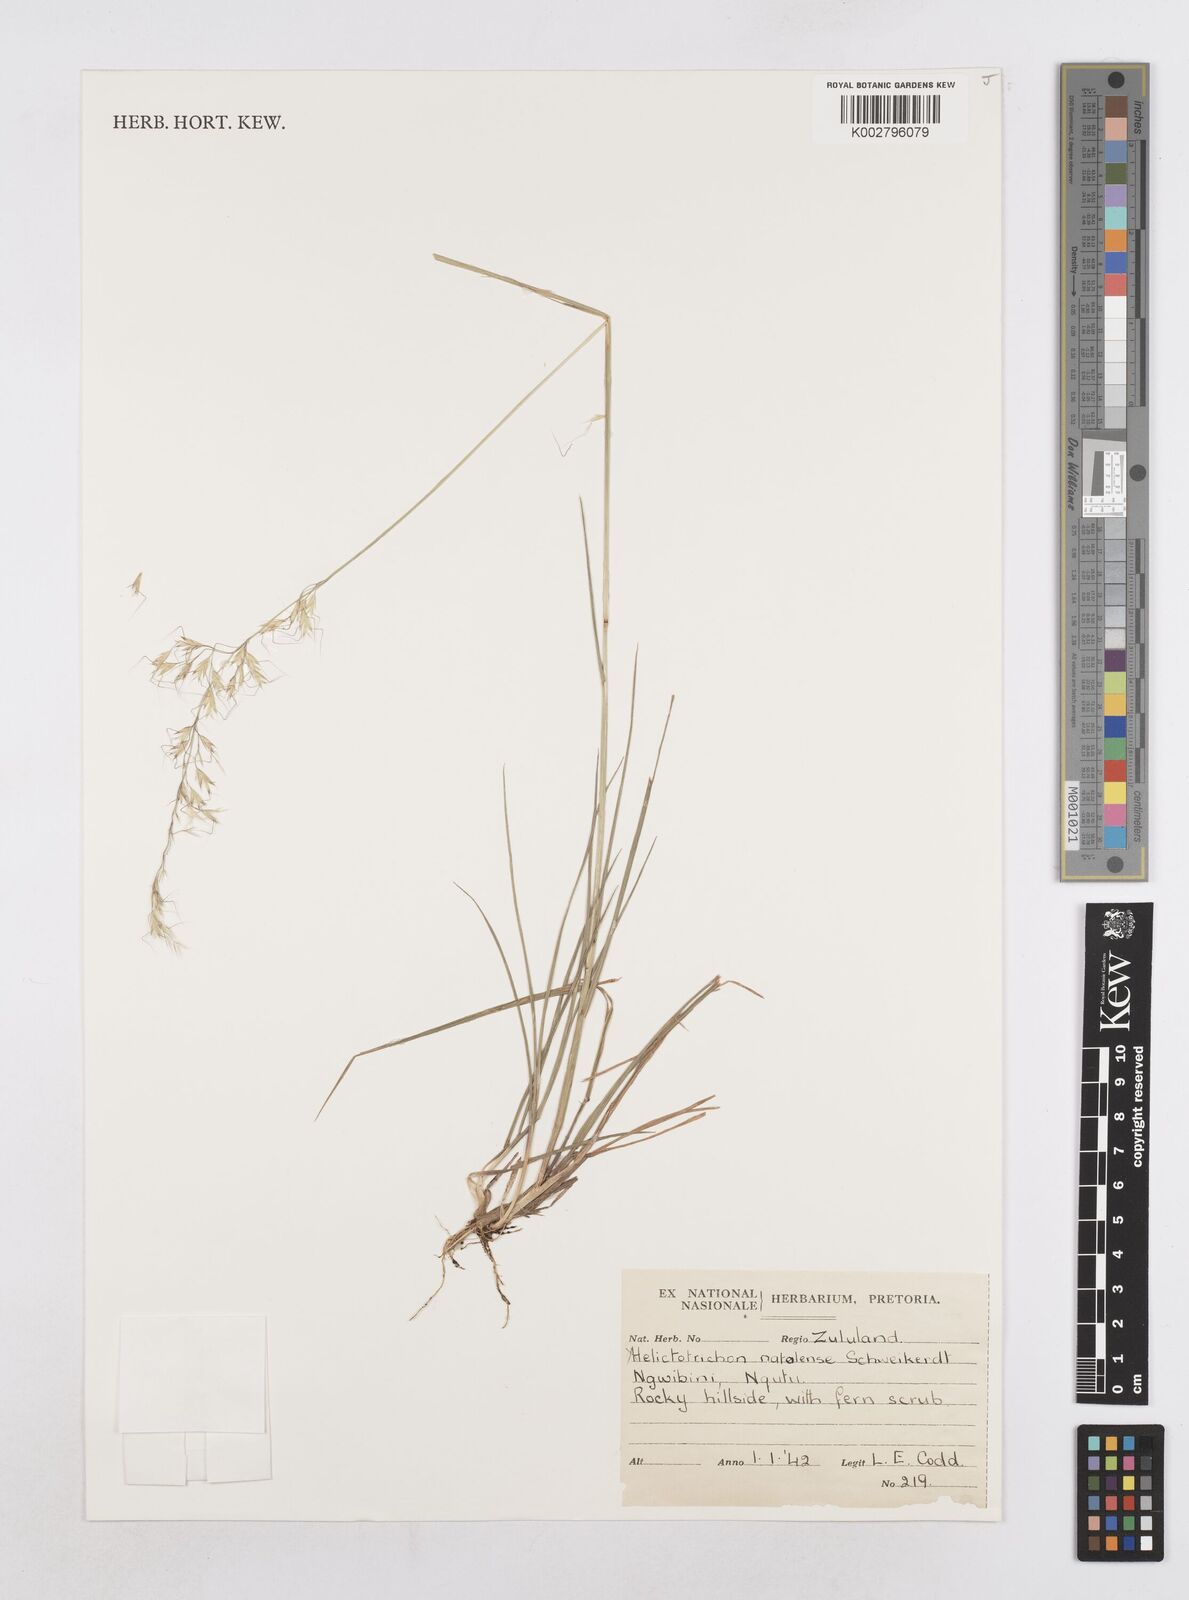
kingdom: Plantae
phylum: Tracheophyta
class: Liliopsida
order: Poales
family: Poaceae
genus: Trisetopsis
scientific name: Trisetopsis natalensis
